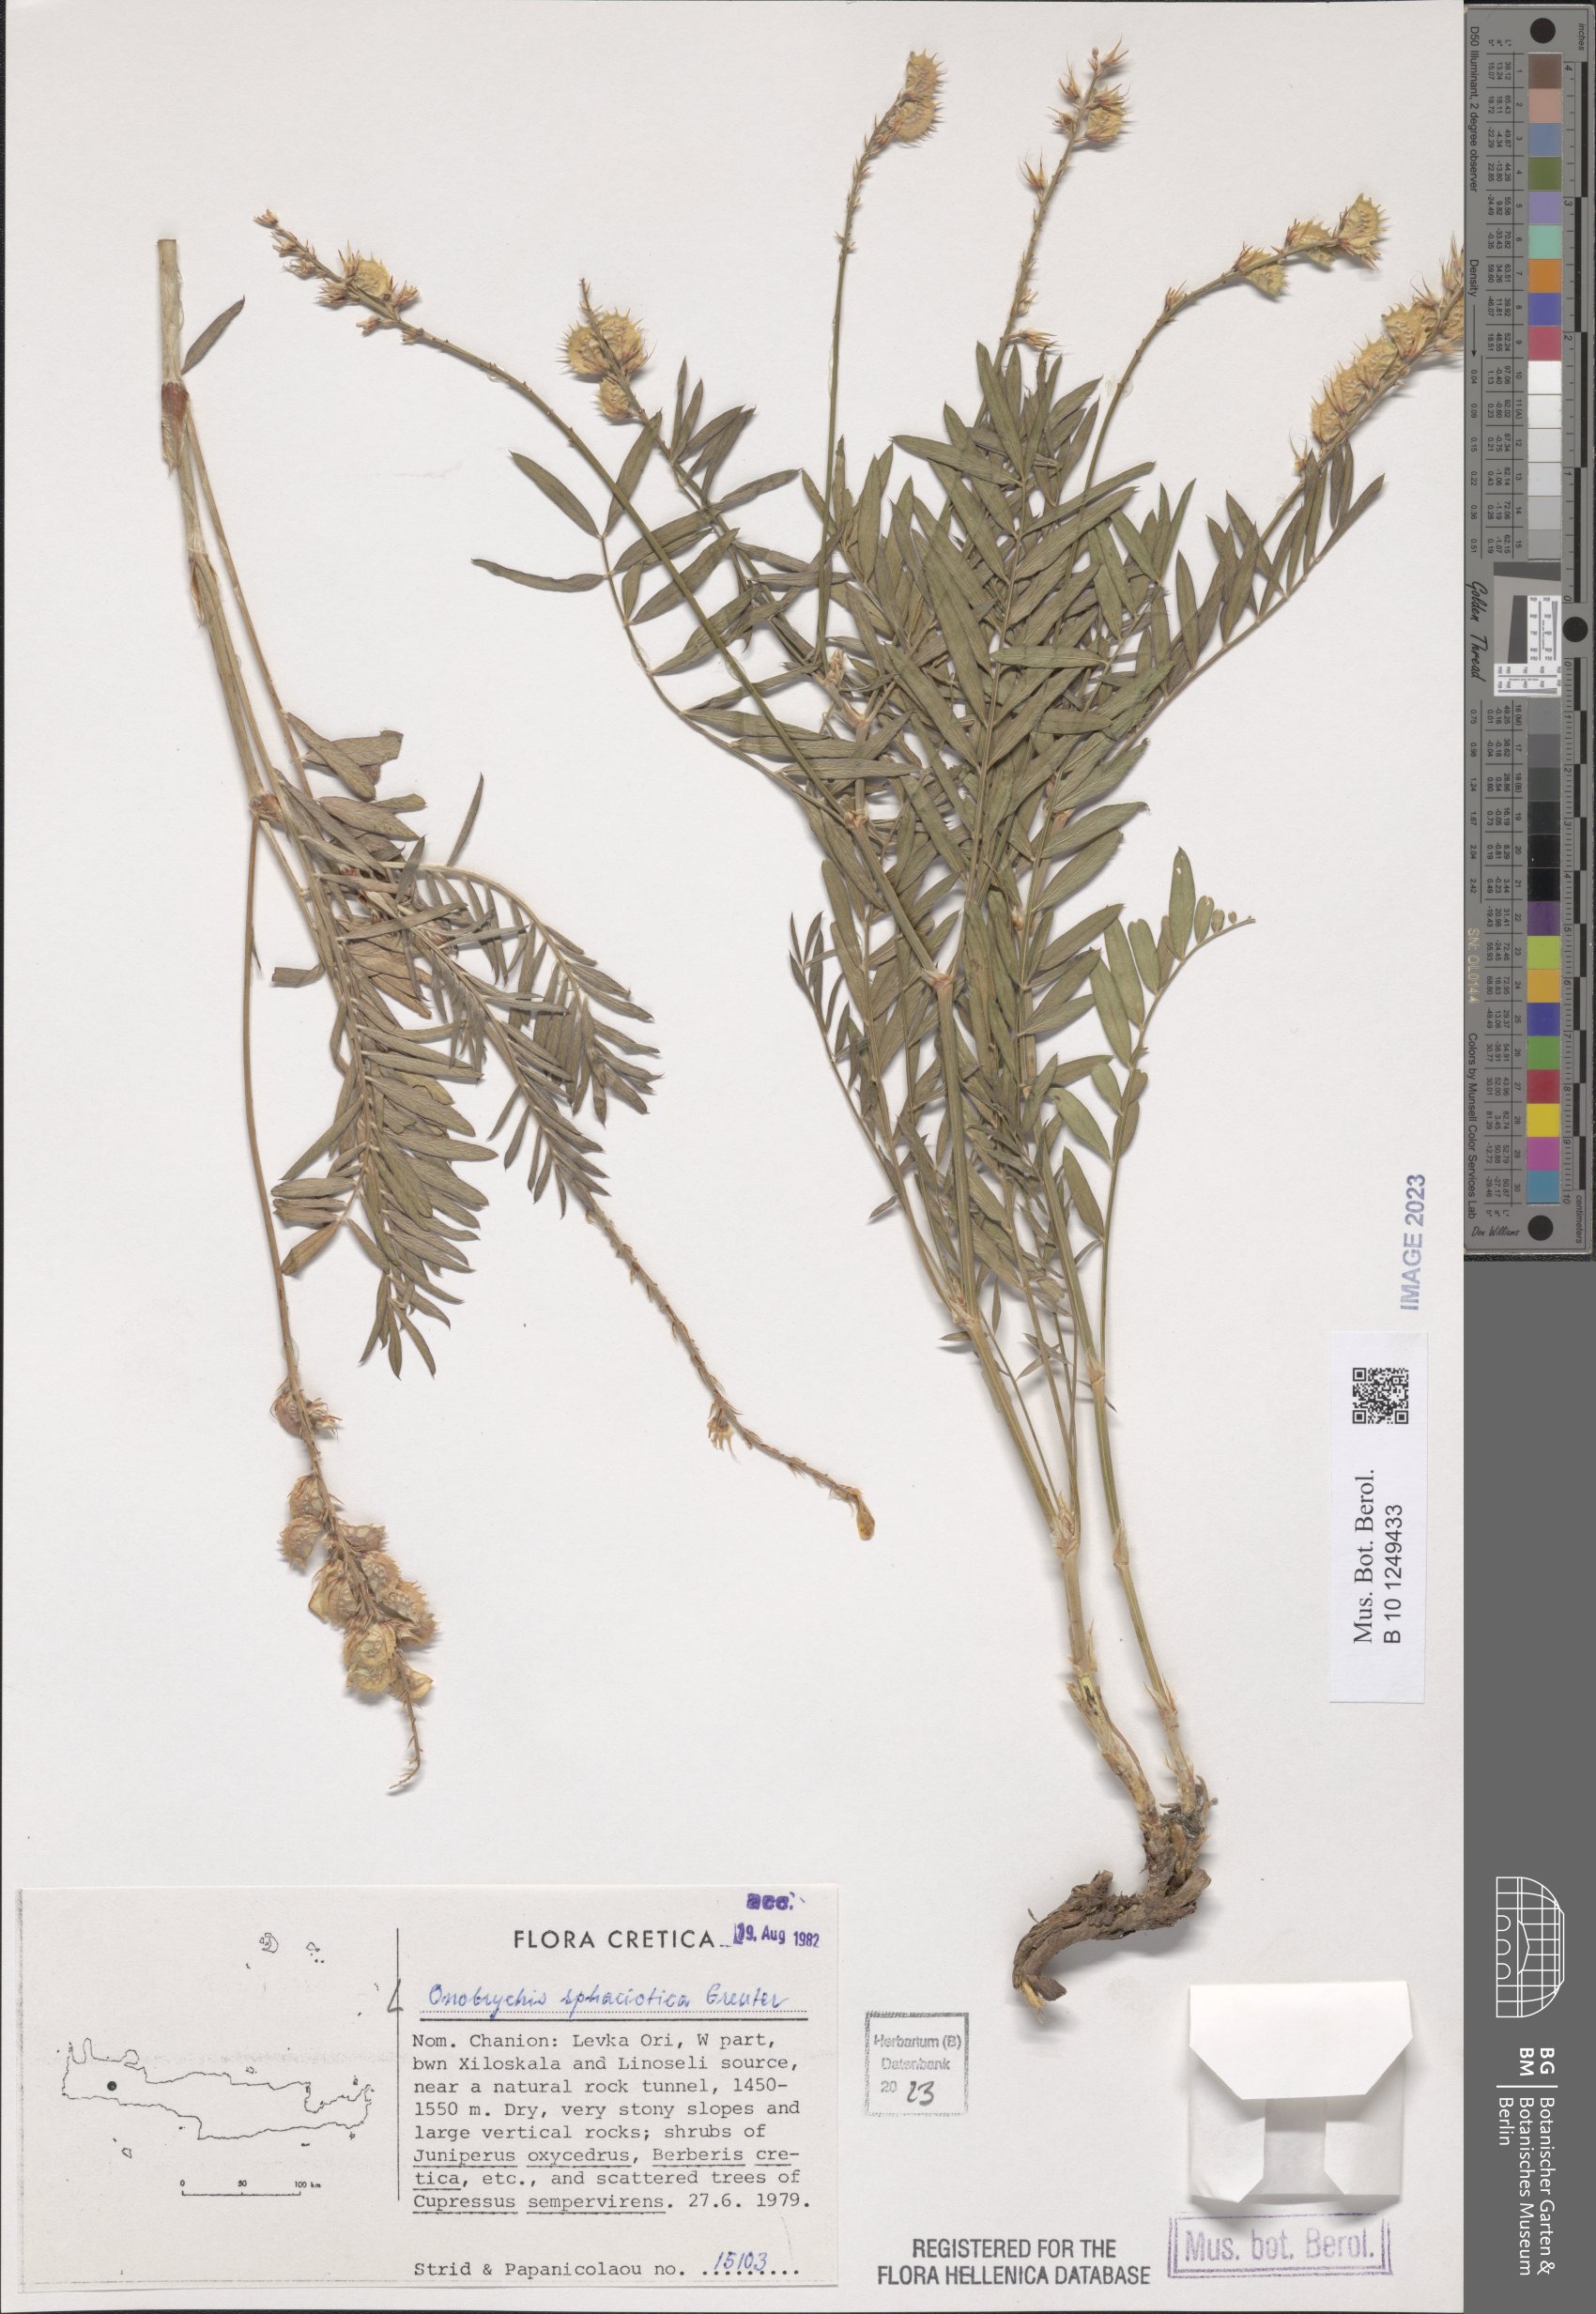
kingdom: Plantae
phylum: Tracheophyta
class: Magnoliopsida
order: Fabales
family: Fabaceae
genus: Onobrychis
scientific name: Onobrychis sphaciotica
